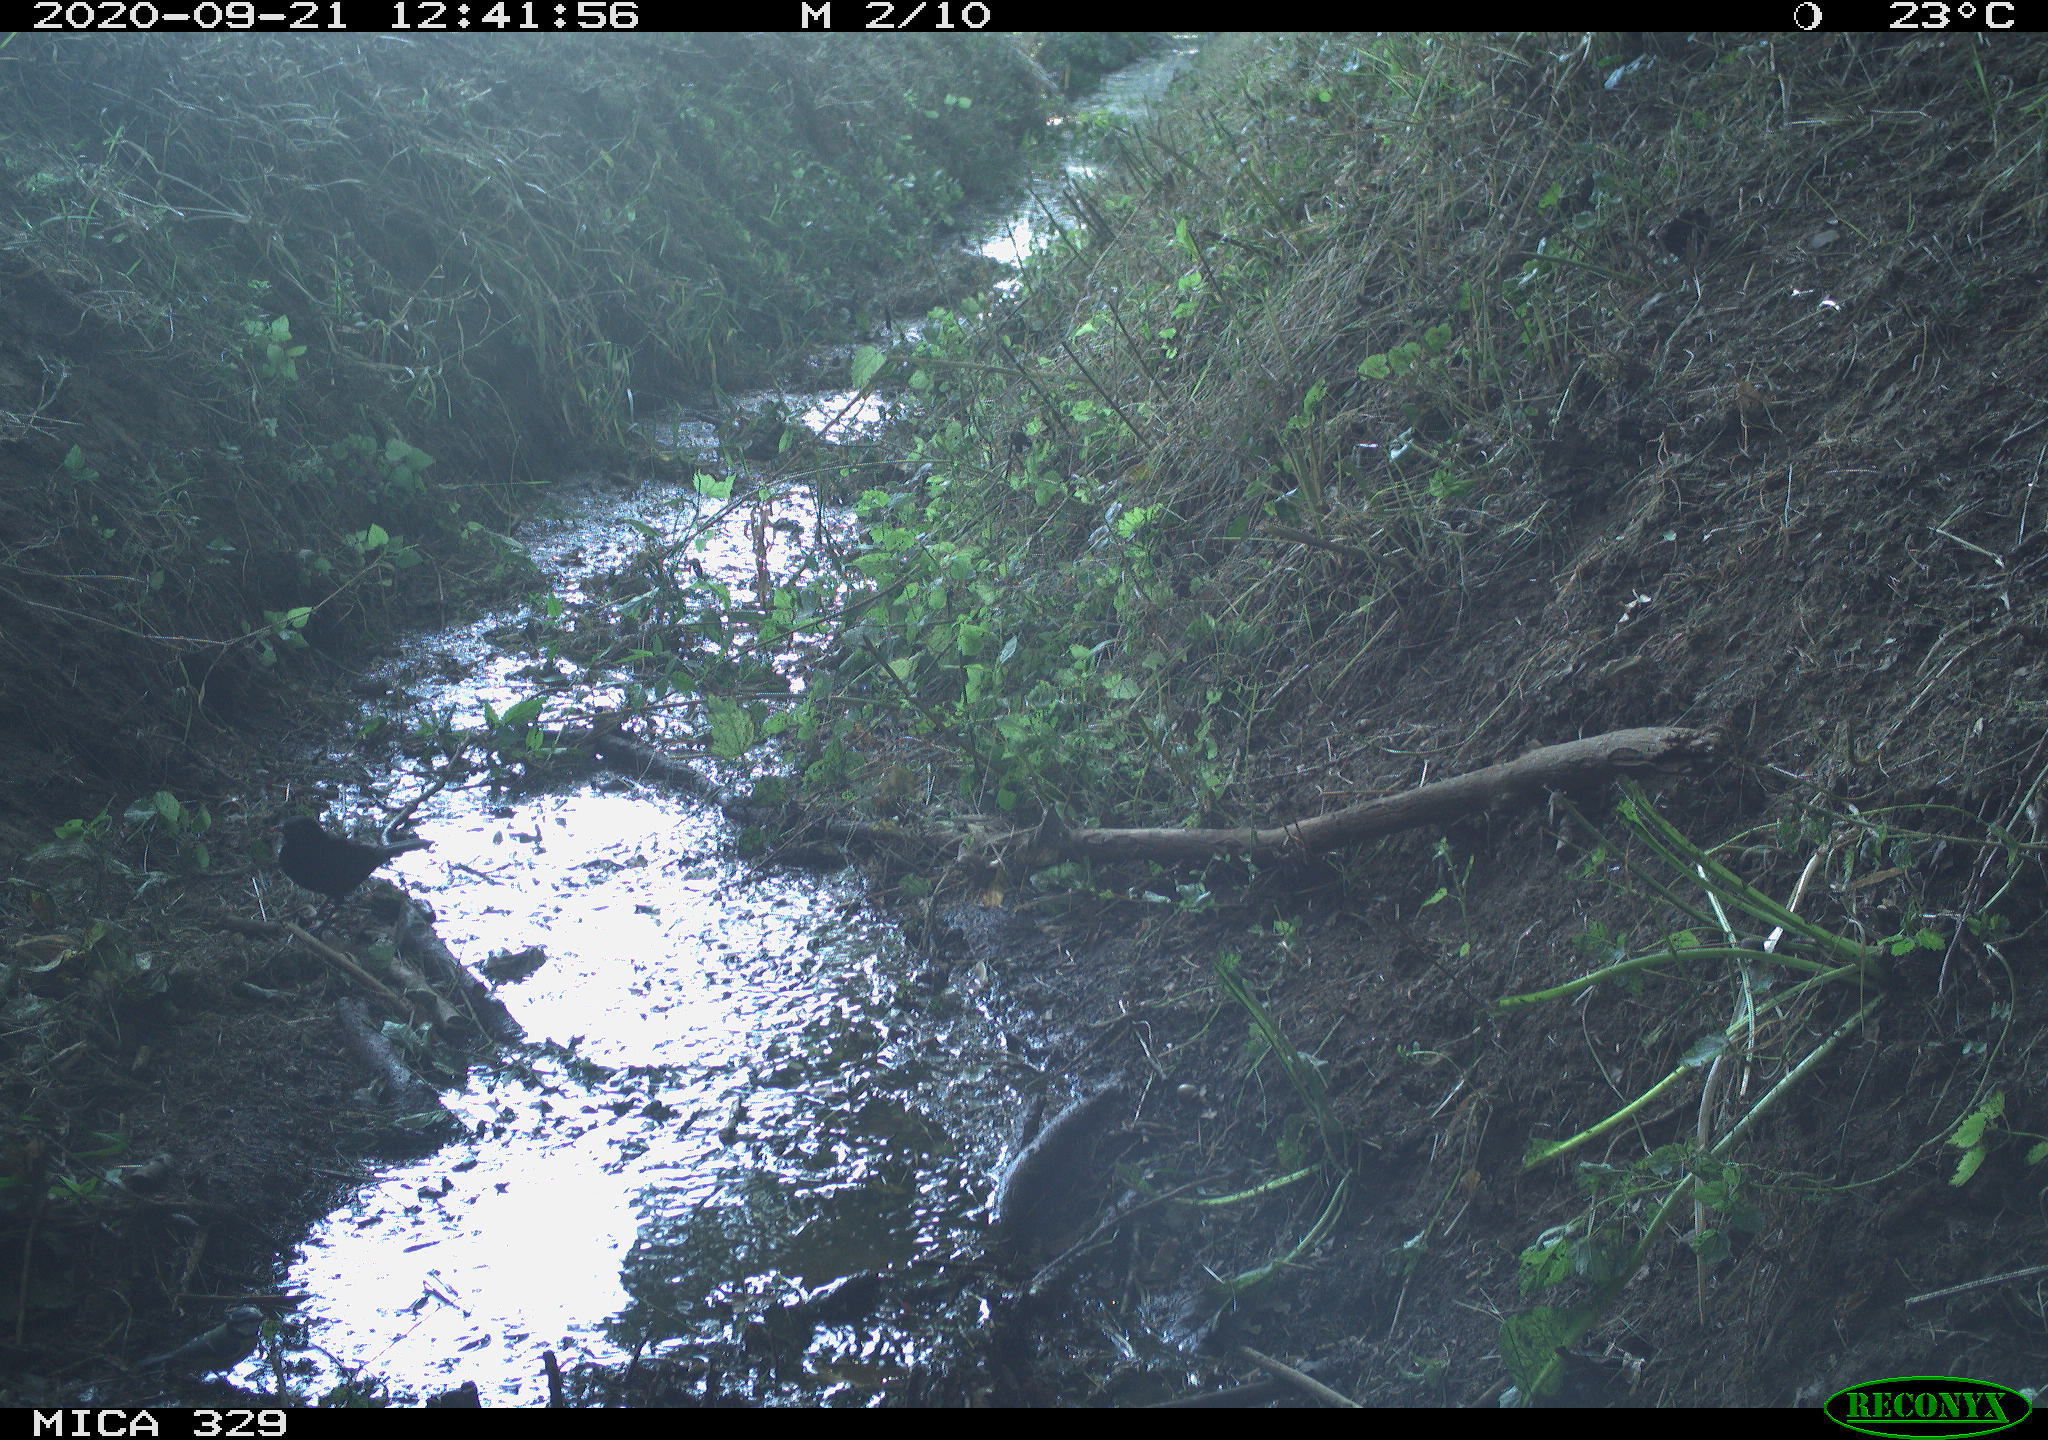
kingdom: Animalia
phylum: Chordata
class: Aves
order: Passeriformes
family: Turdidae
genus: Turdus
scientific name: Turdus merula
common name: Common blackbird
